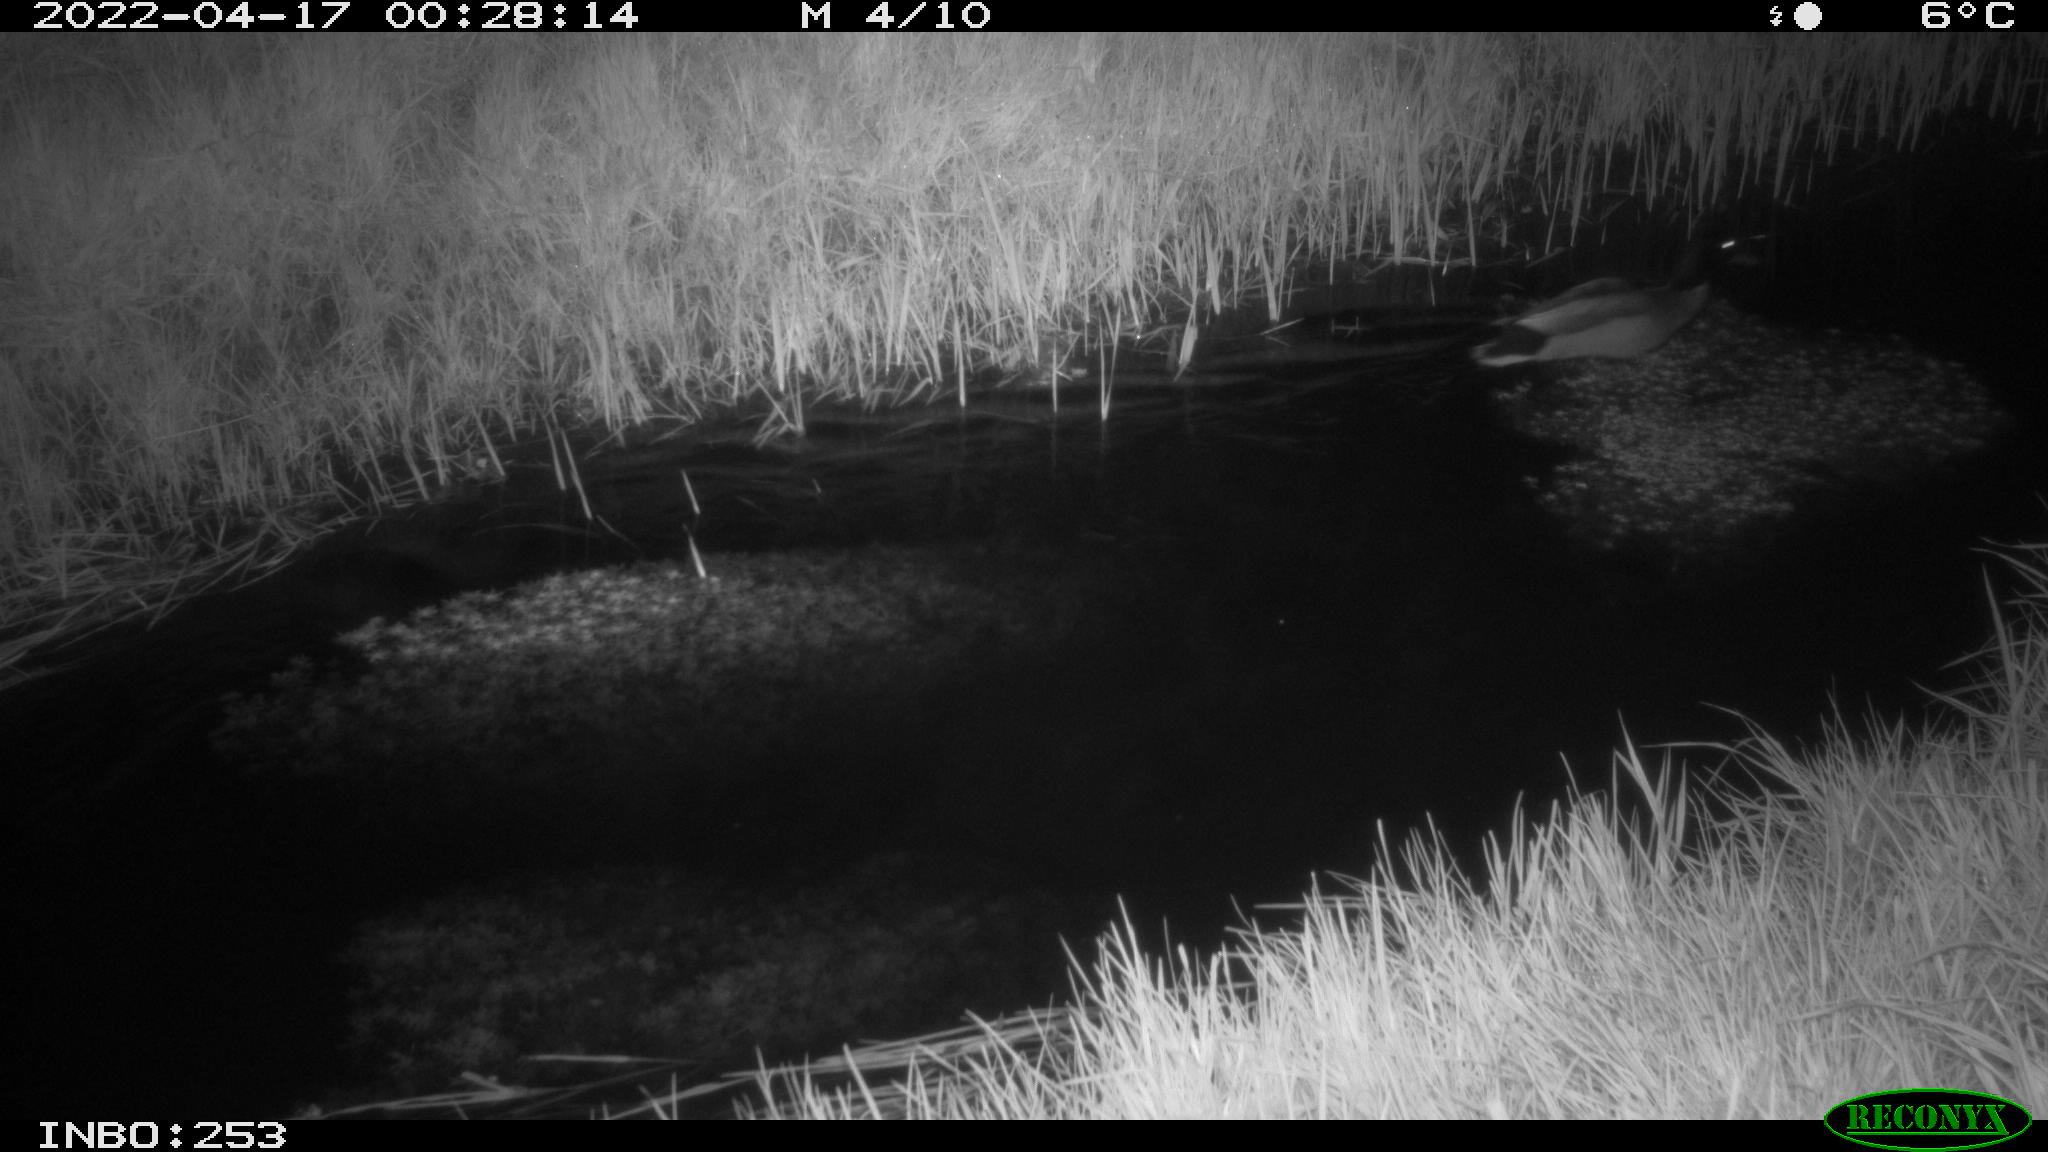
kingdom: Animalia
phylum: Chordata
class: Aves
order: Anseriformes
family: Anatidae
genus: Anas
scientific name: Anas platyrhynchos
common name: Mallard
